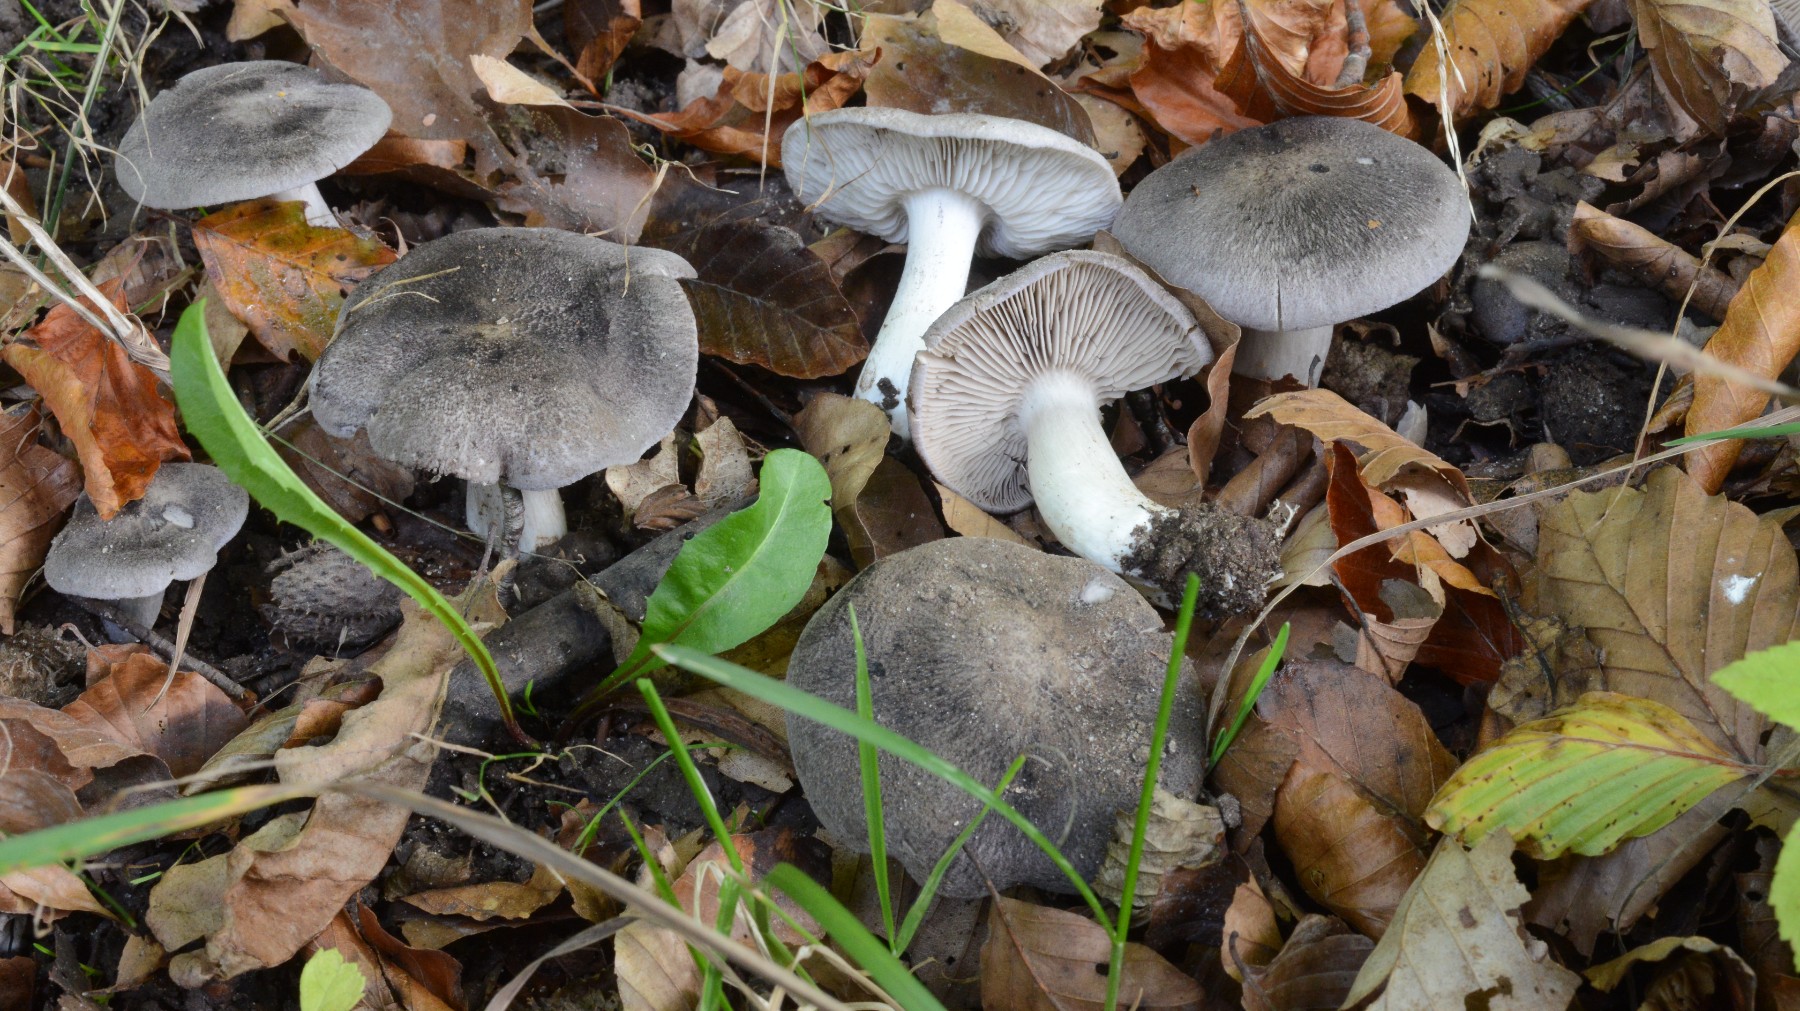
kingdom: Fungi
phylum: Basidiomycota
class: Agaricomycetes
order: Agaricales
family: Tricholomataceae
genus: Tricholoma
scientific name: Tricholoma orirubens
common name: rødbladet ridderhat
